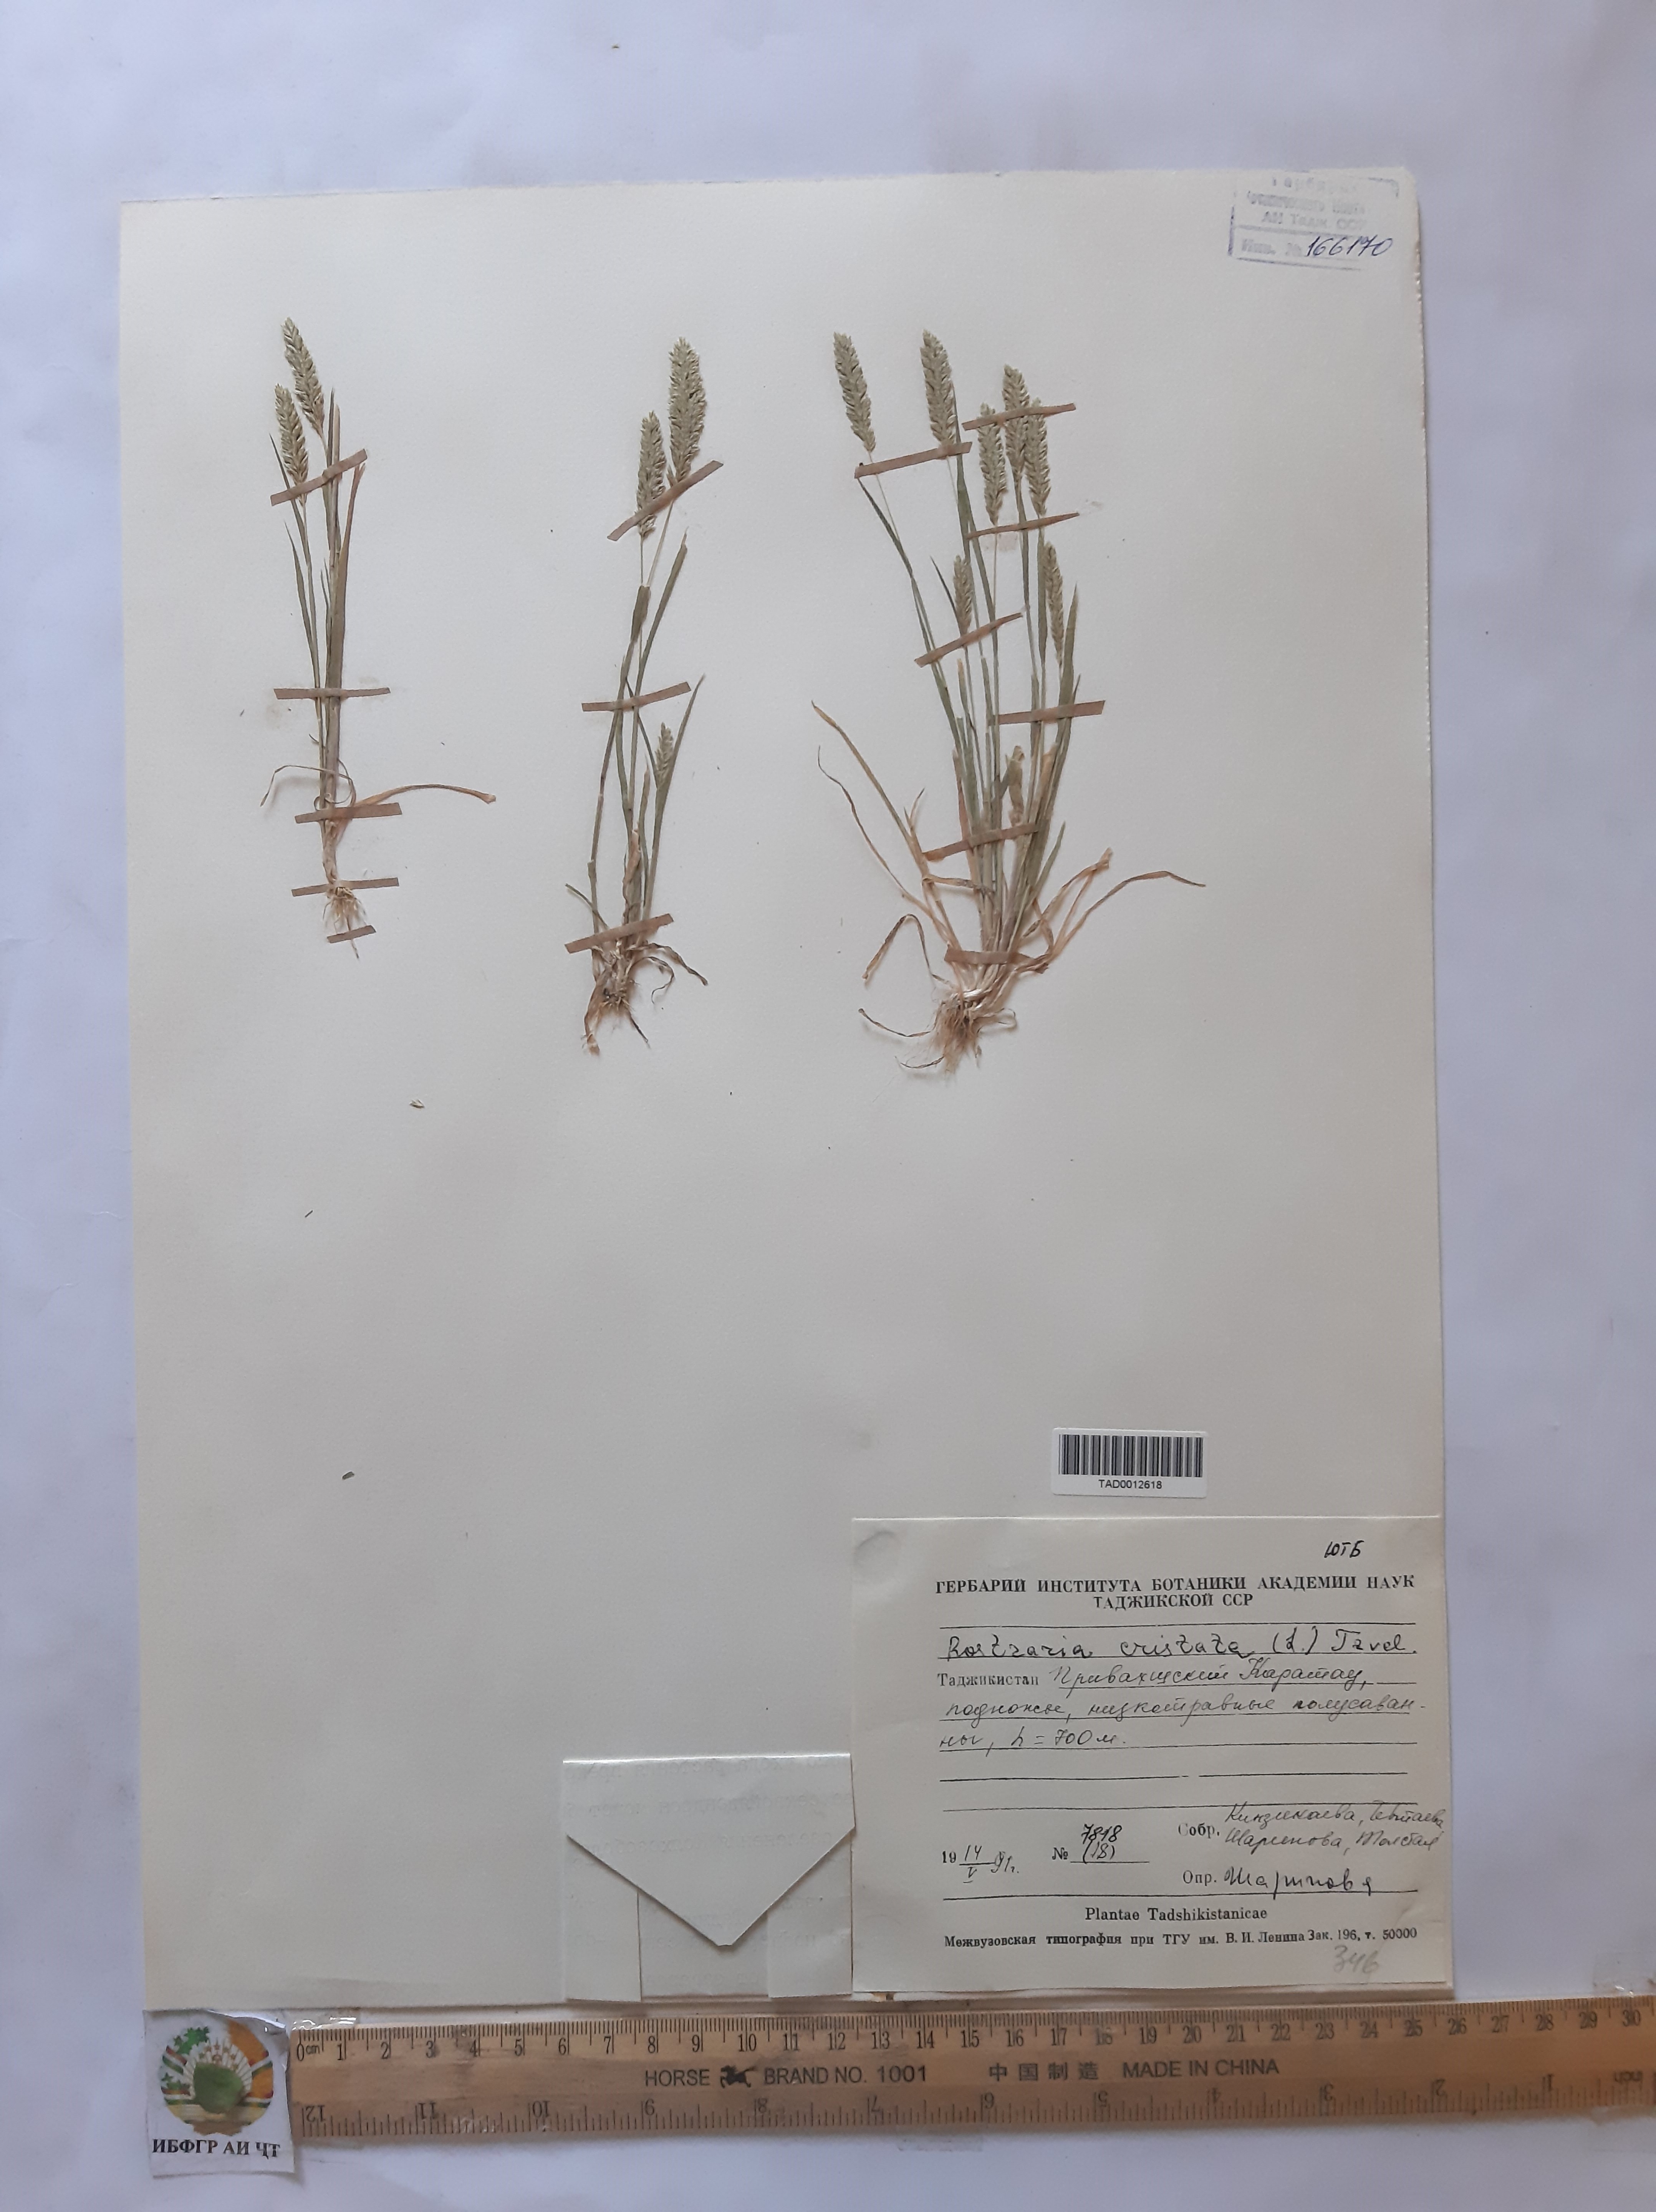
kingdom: Plantae
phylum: Tracheophyta
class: Liliopsida
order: Poales
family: Poaceae
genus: Rostraria
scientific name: Rostraria cristata
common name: Mediterranean hair-grass
